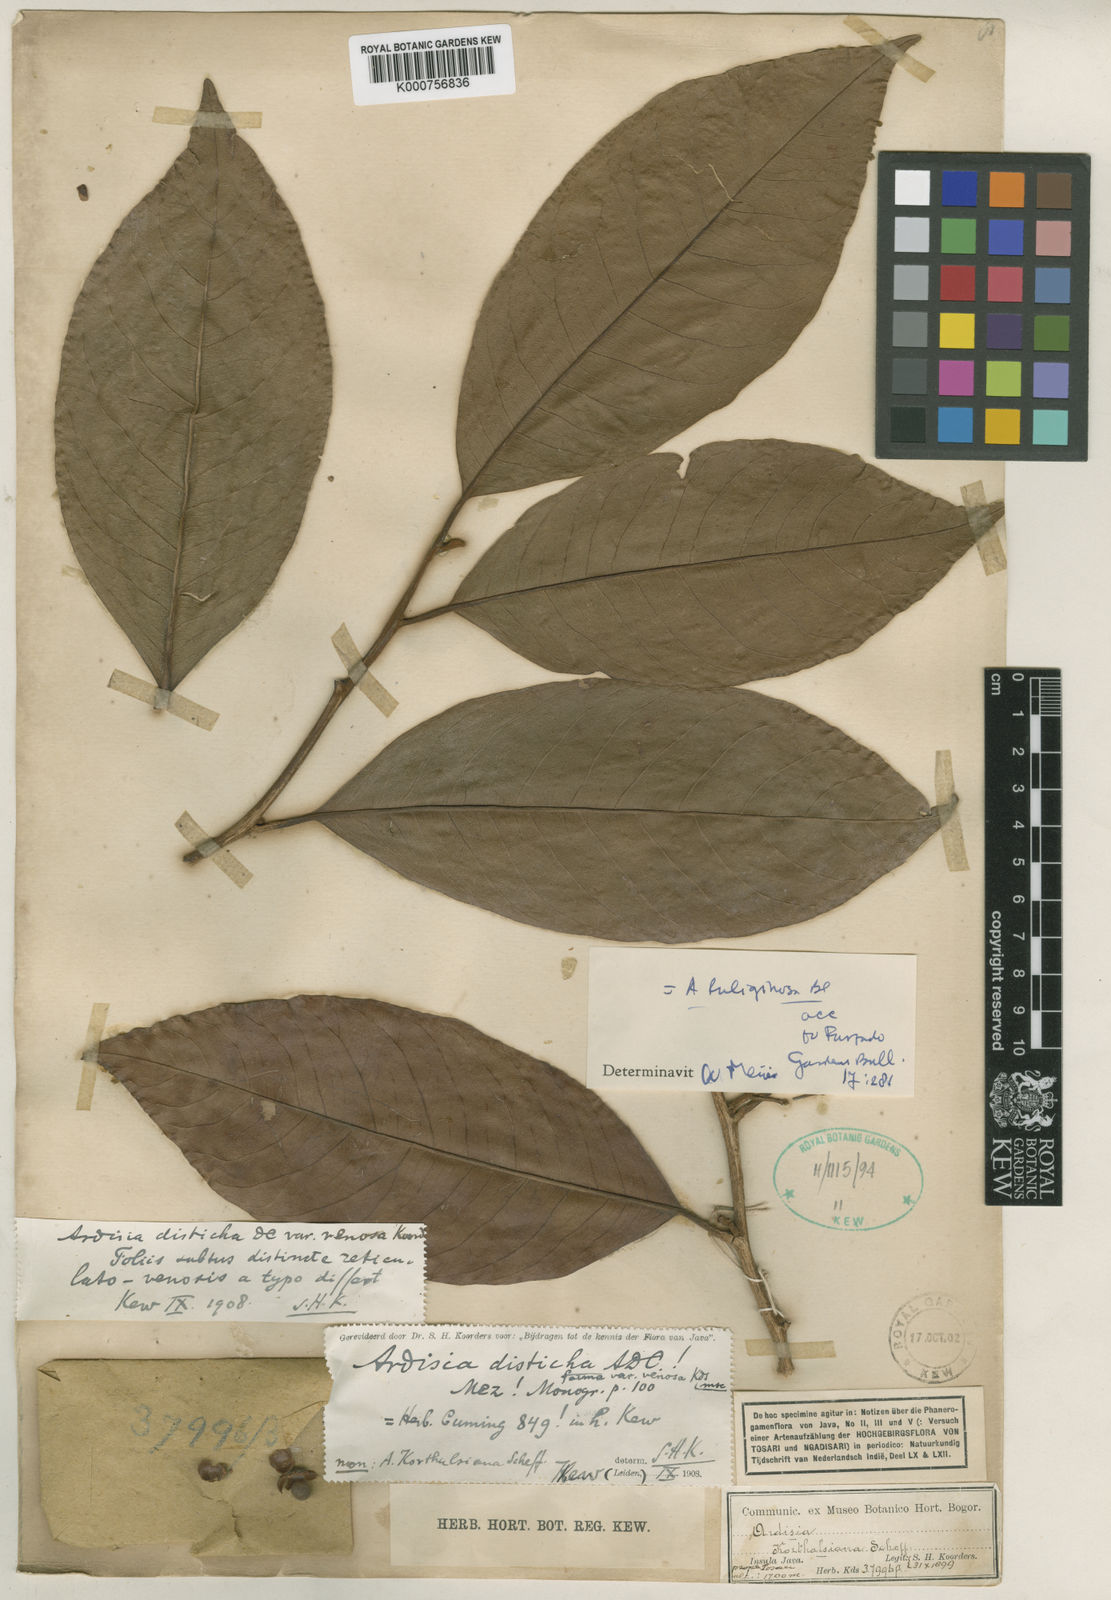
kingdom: Plantae
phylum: Tracheophyta
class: Magnoliopsida
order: Ericales
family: Primulaceae
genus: Ardisia
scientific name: Ardisia disticha
